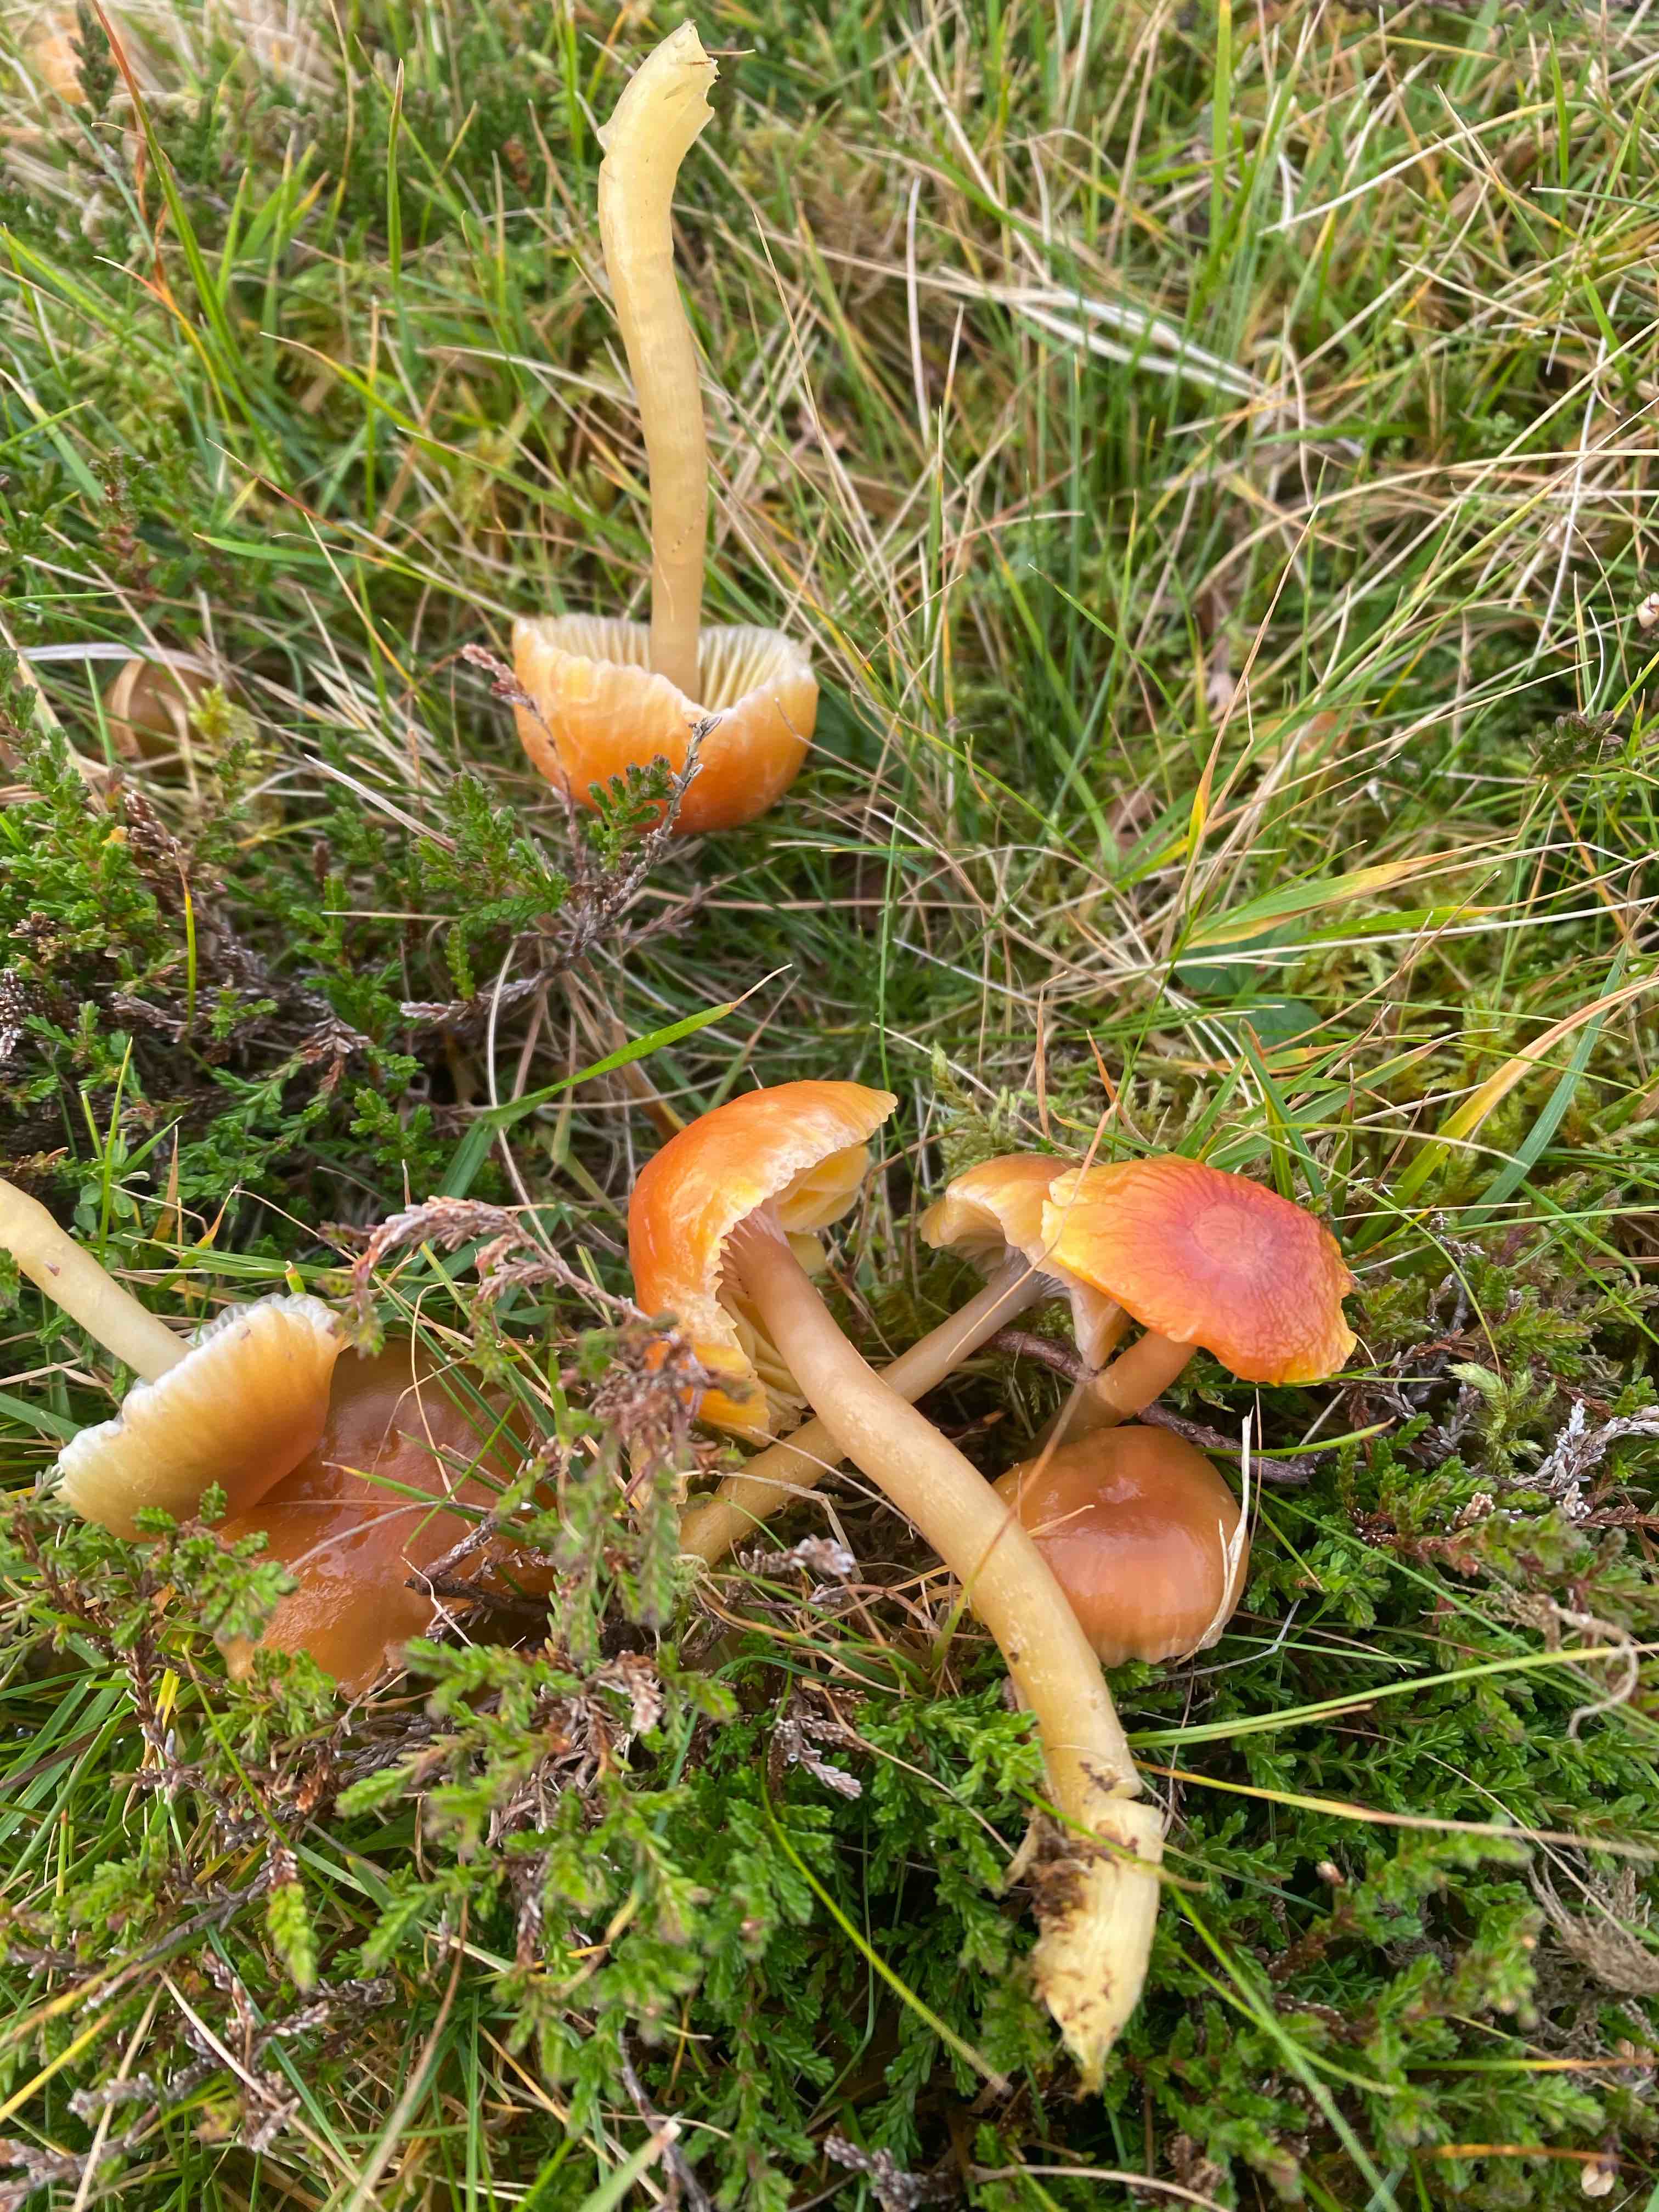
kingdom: Fungi
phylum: Basidiomycota
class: Agaricomycetes
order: Agaricales
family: Hygrophoraceae
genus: Gliophorus
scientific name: Gliophorus laetus
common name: brusk-vokshat
